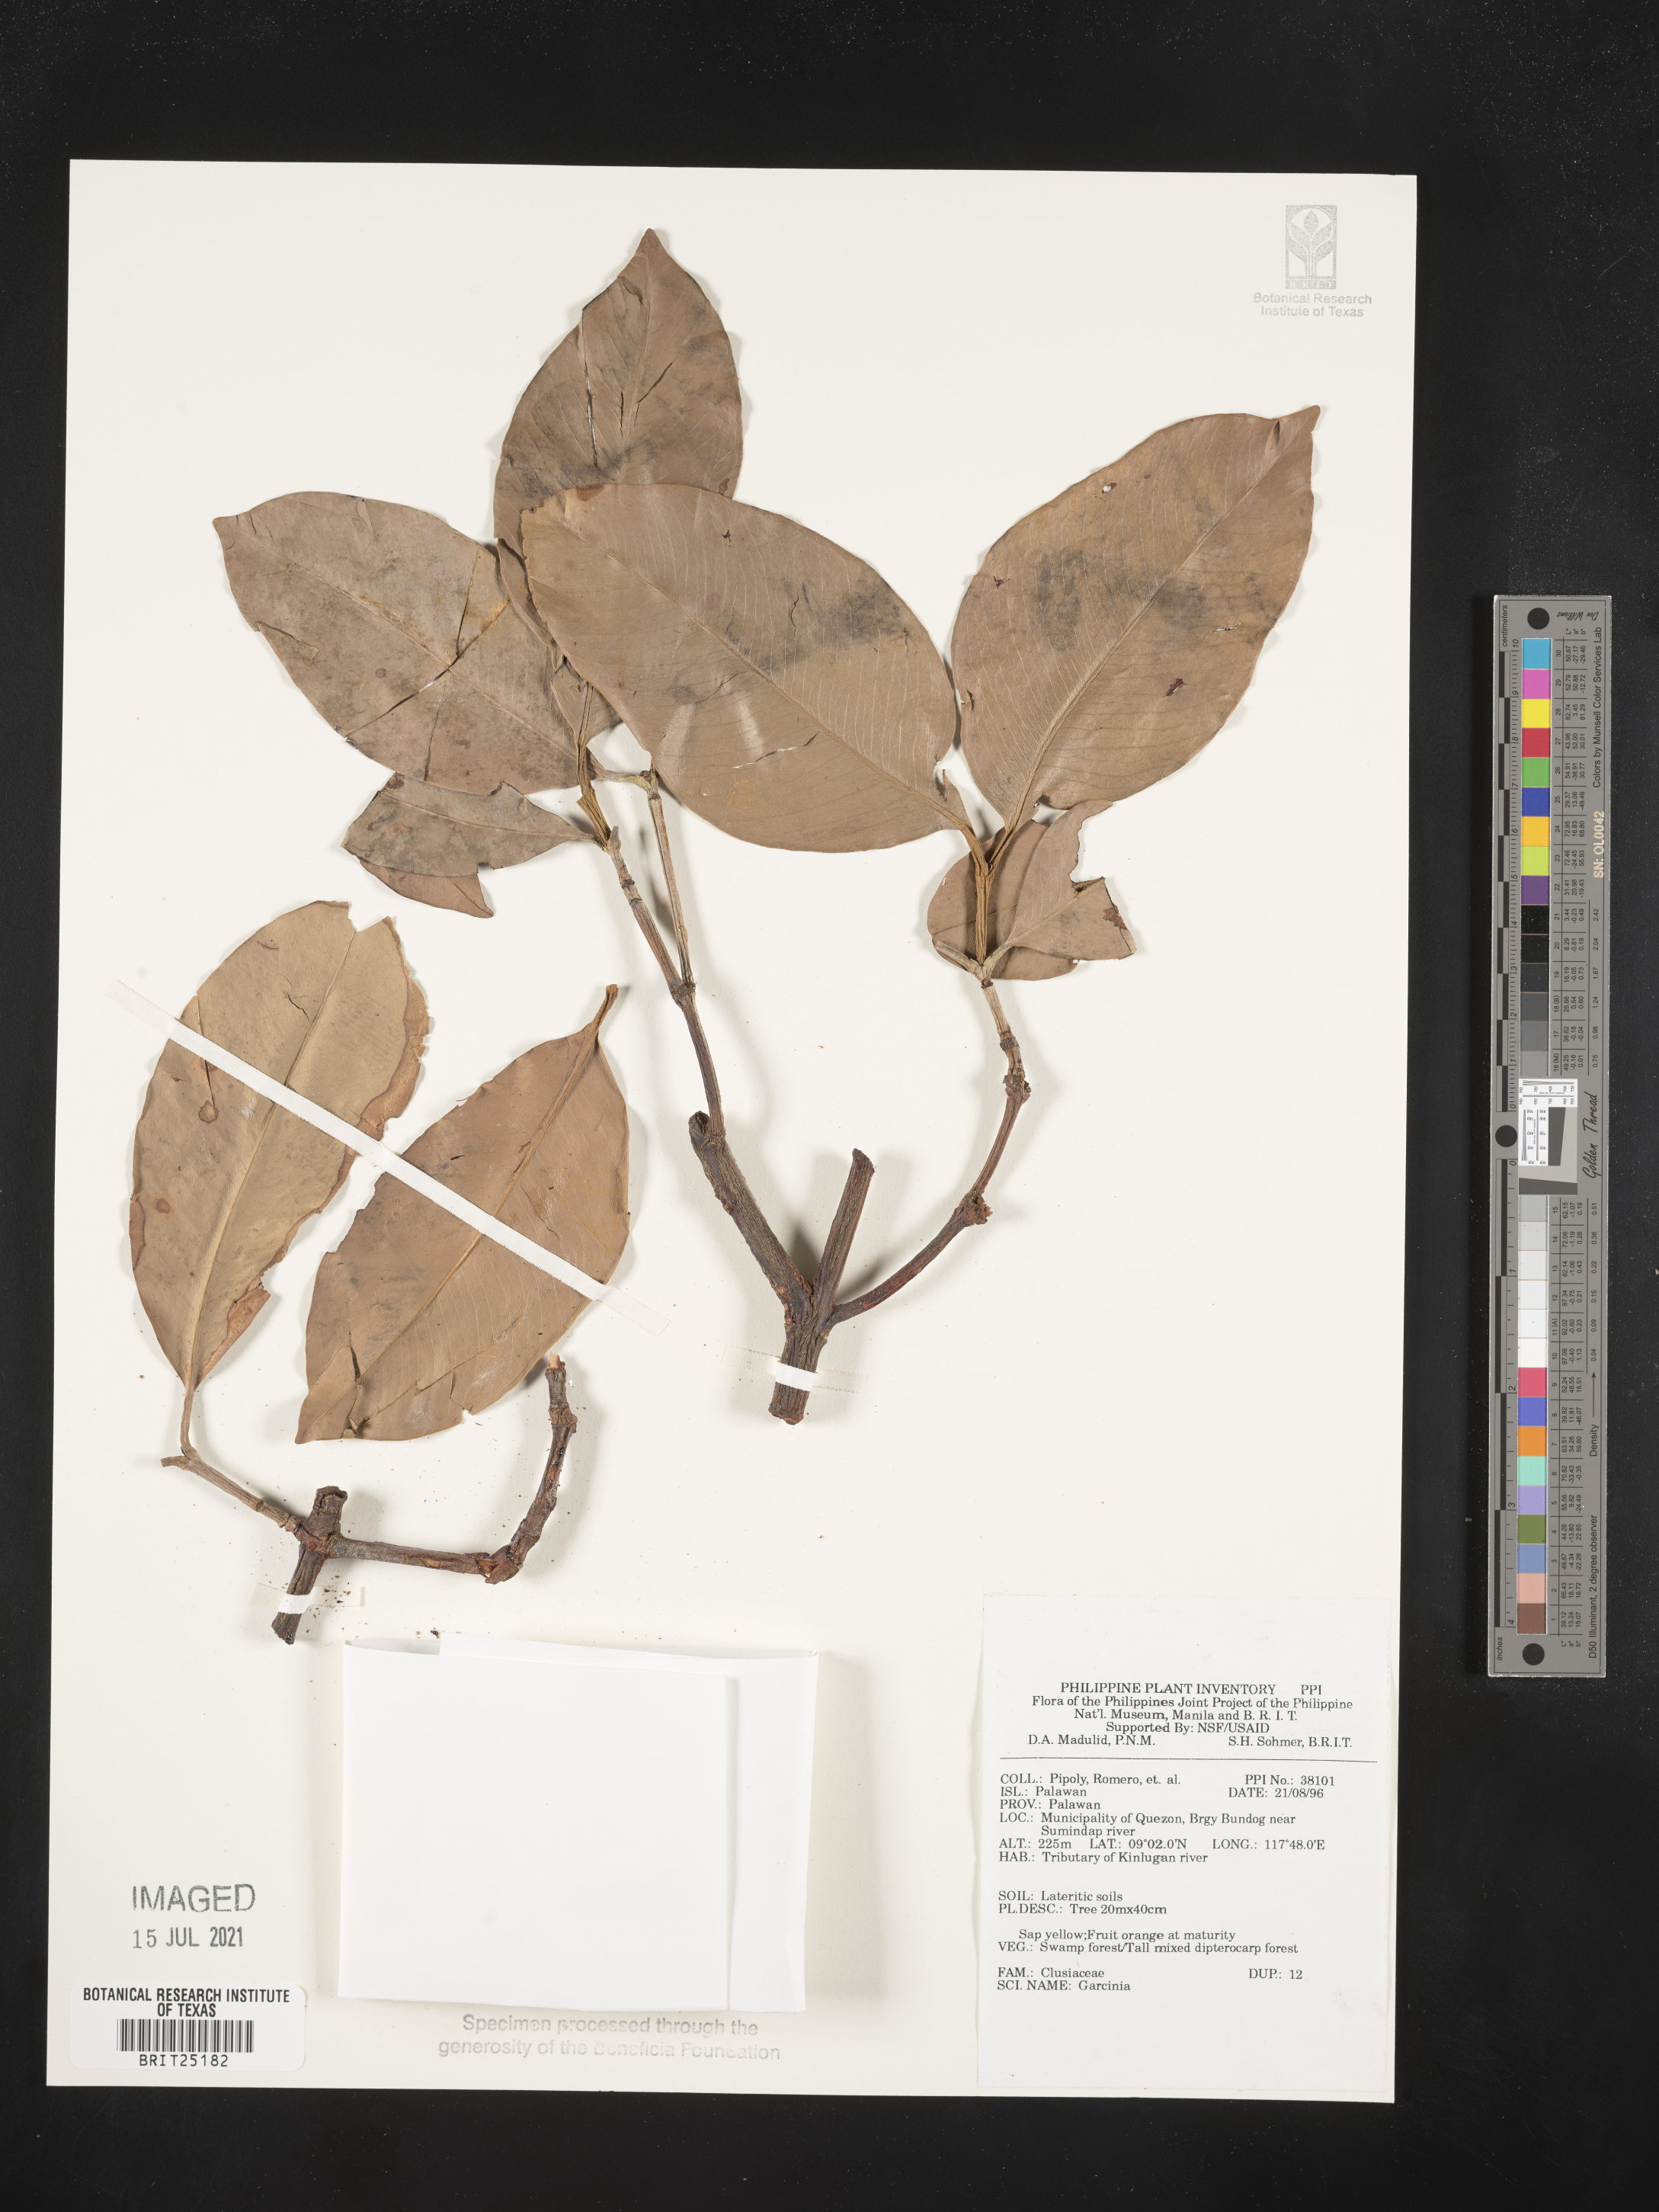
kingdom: Plantae
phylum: Tracheophyta
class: Magnoliopsida
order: Malpighiales
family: Clusiaceae
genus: Garcinia
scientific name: Garcinia
